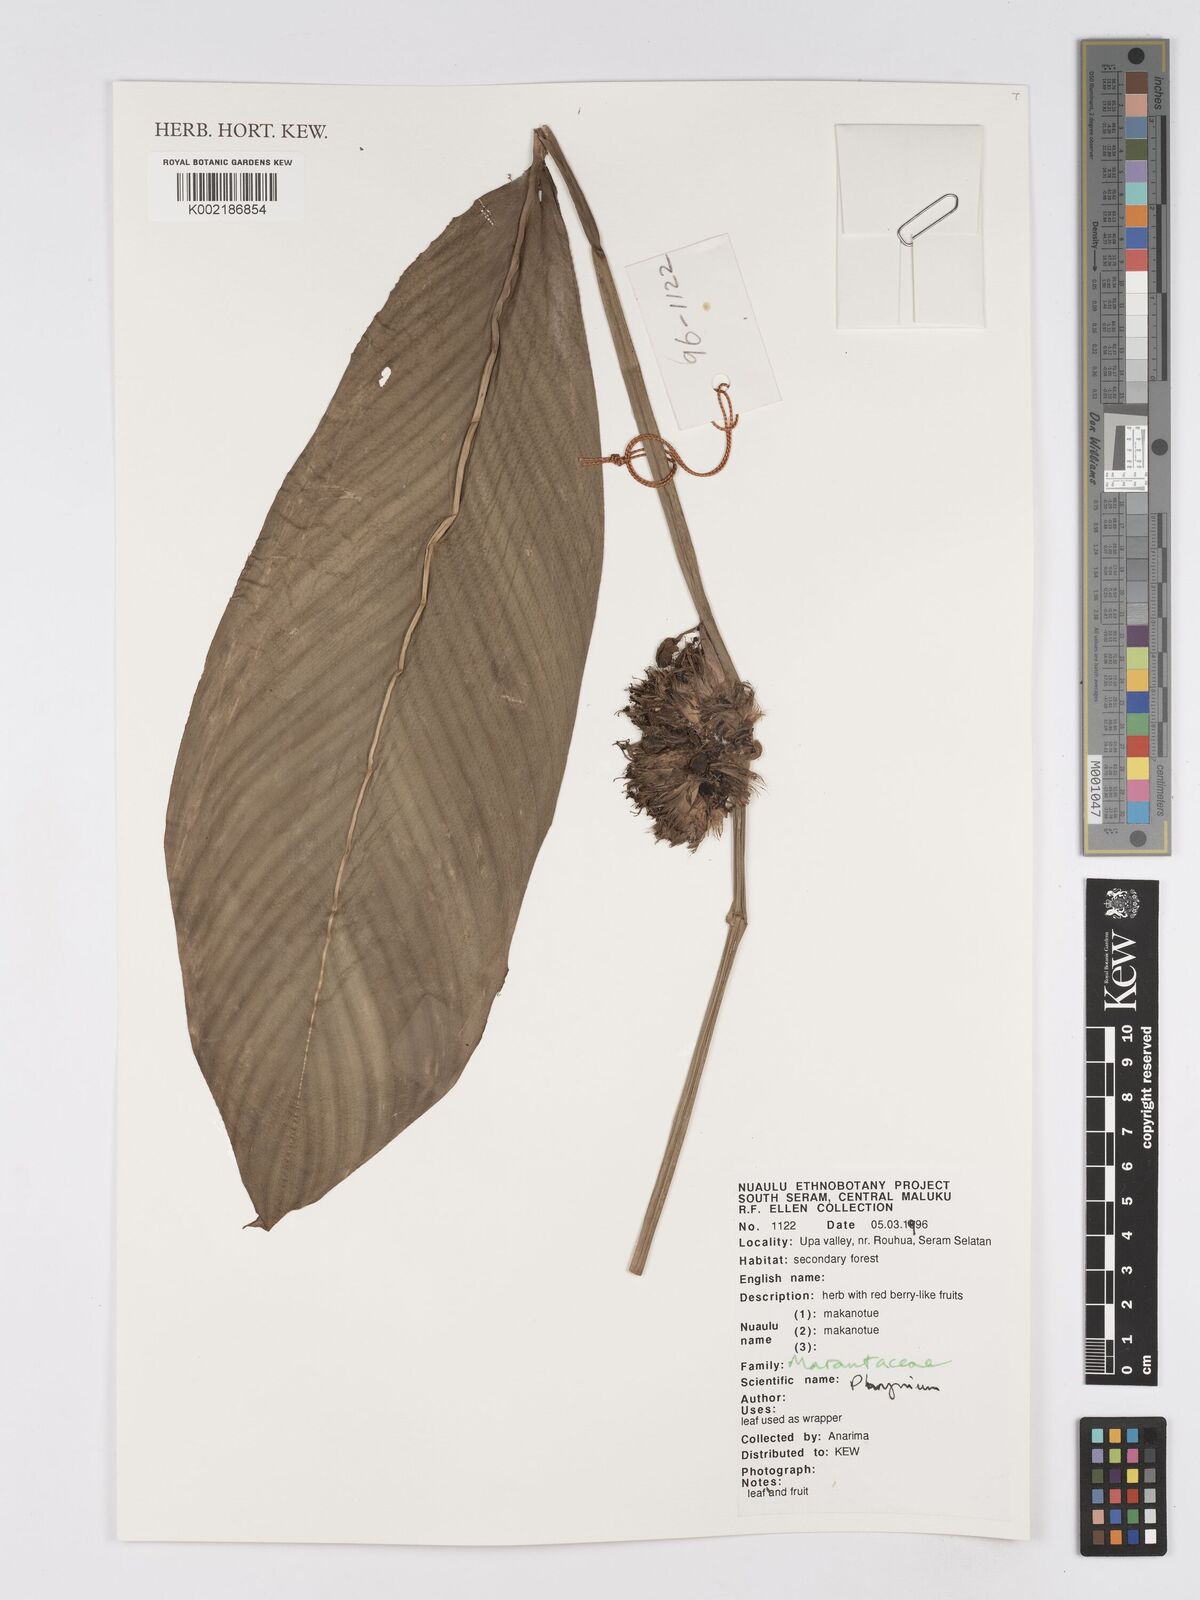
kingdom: Plantae
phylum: Tracheophyta
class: Liliopsida
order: Zingiberales
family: Marantaceae
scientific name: Marantaceae
